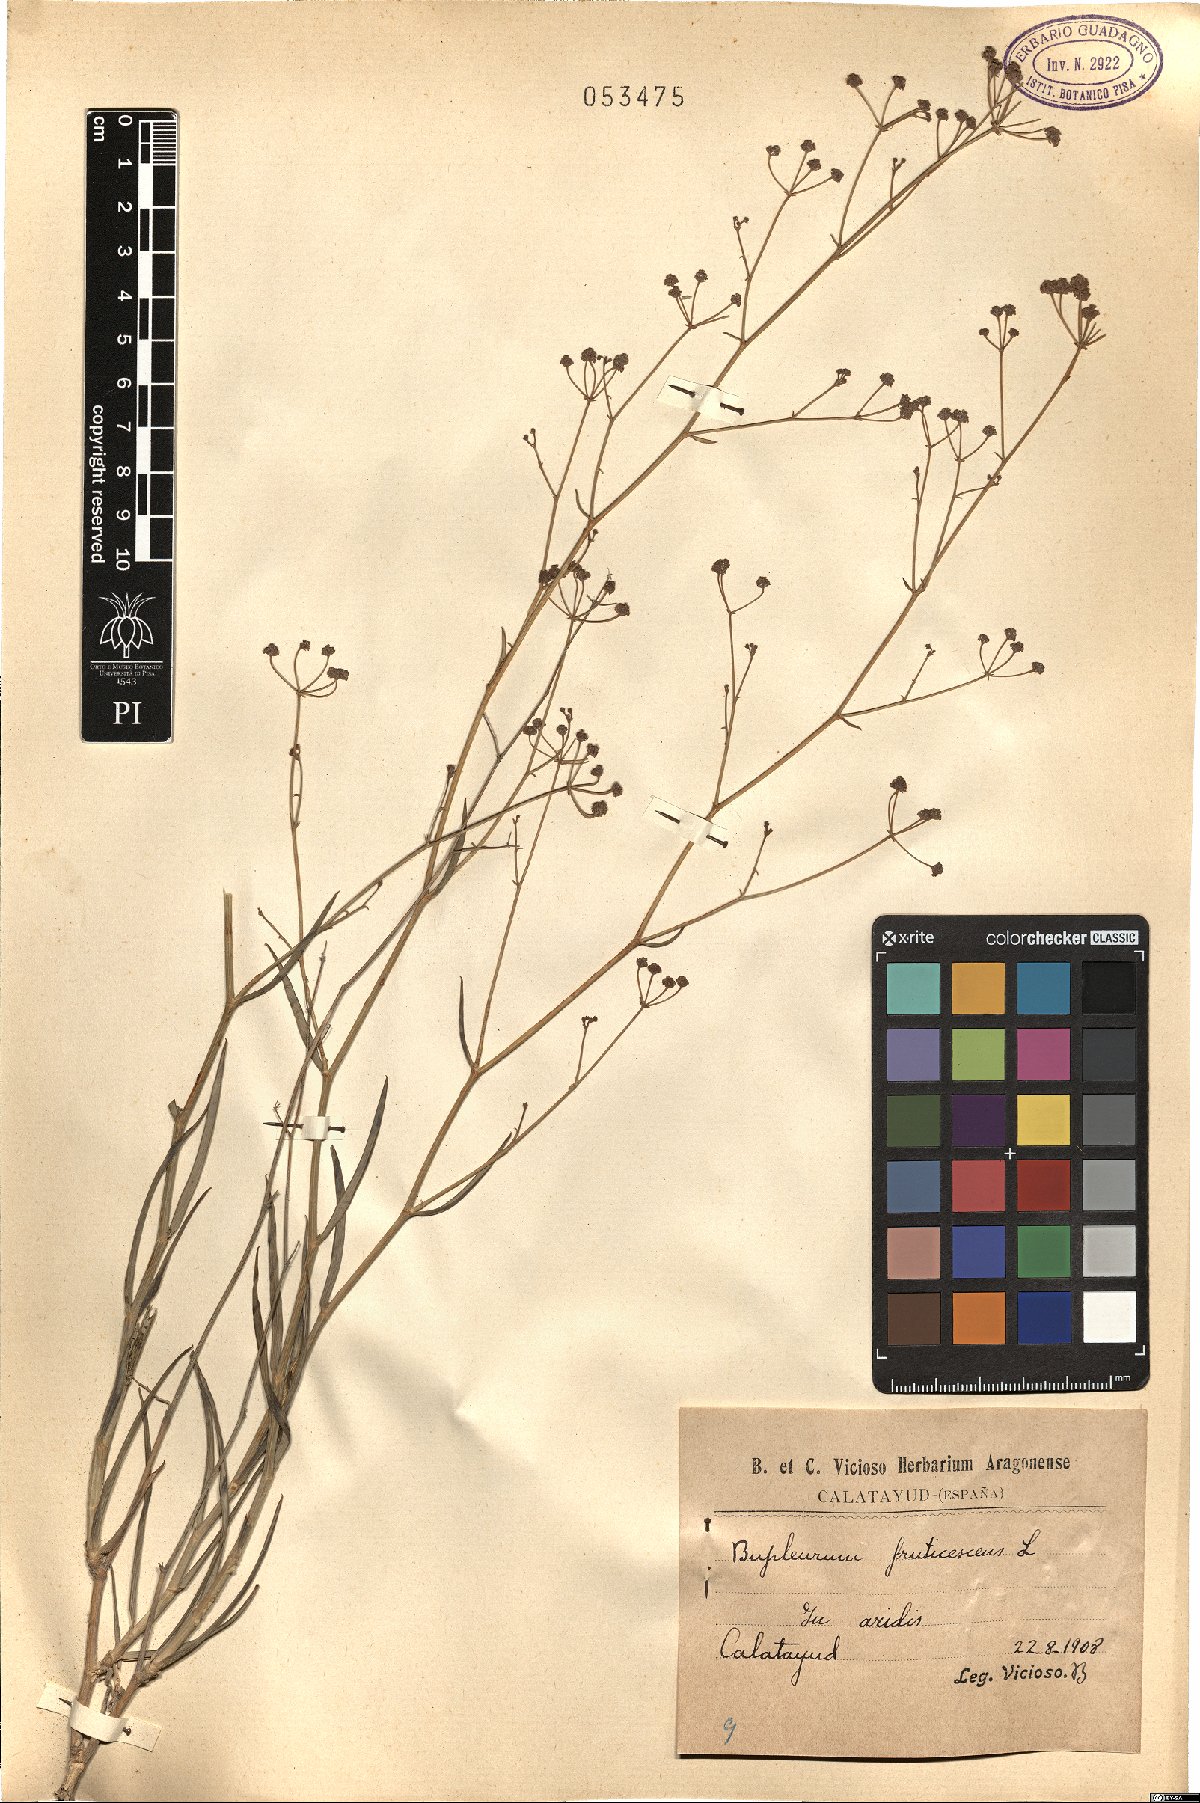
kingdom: Plantae
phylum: Tracheophyta
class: Magnoliopsida
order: Apiales
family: Apiaceae
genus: Bupleurum
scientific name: Bupleurum fruticescens
